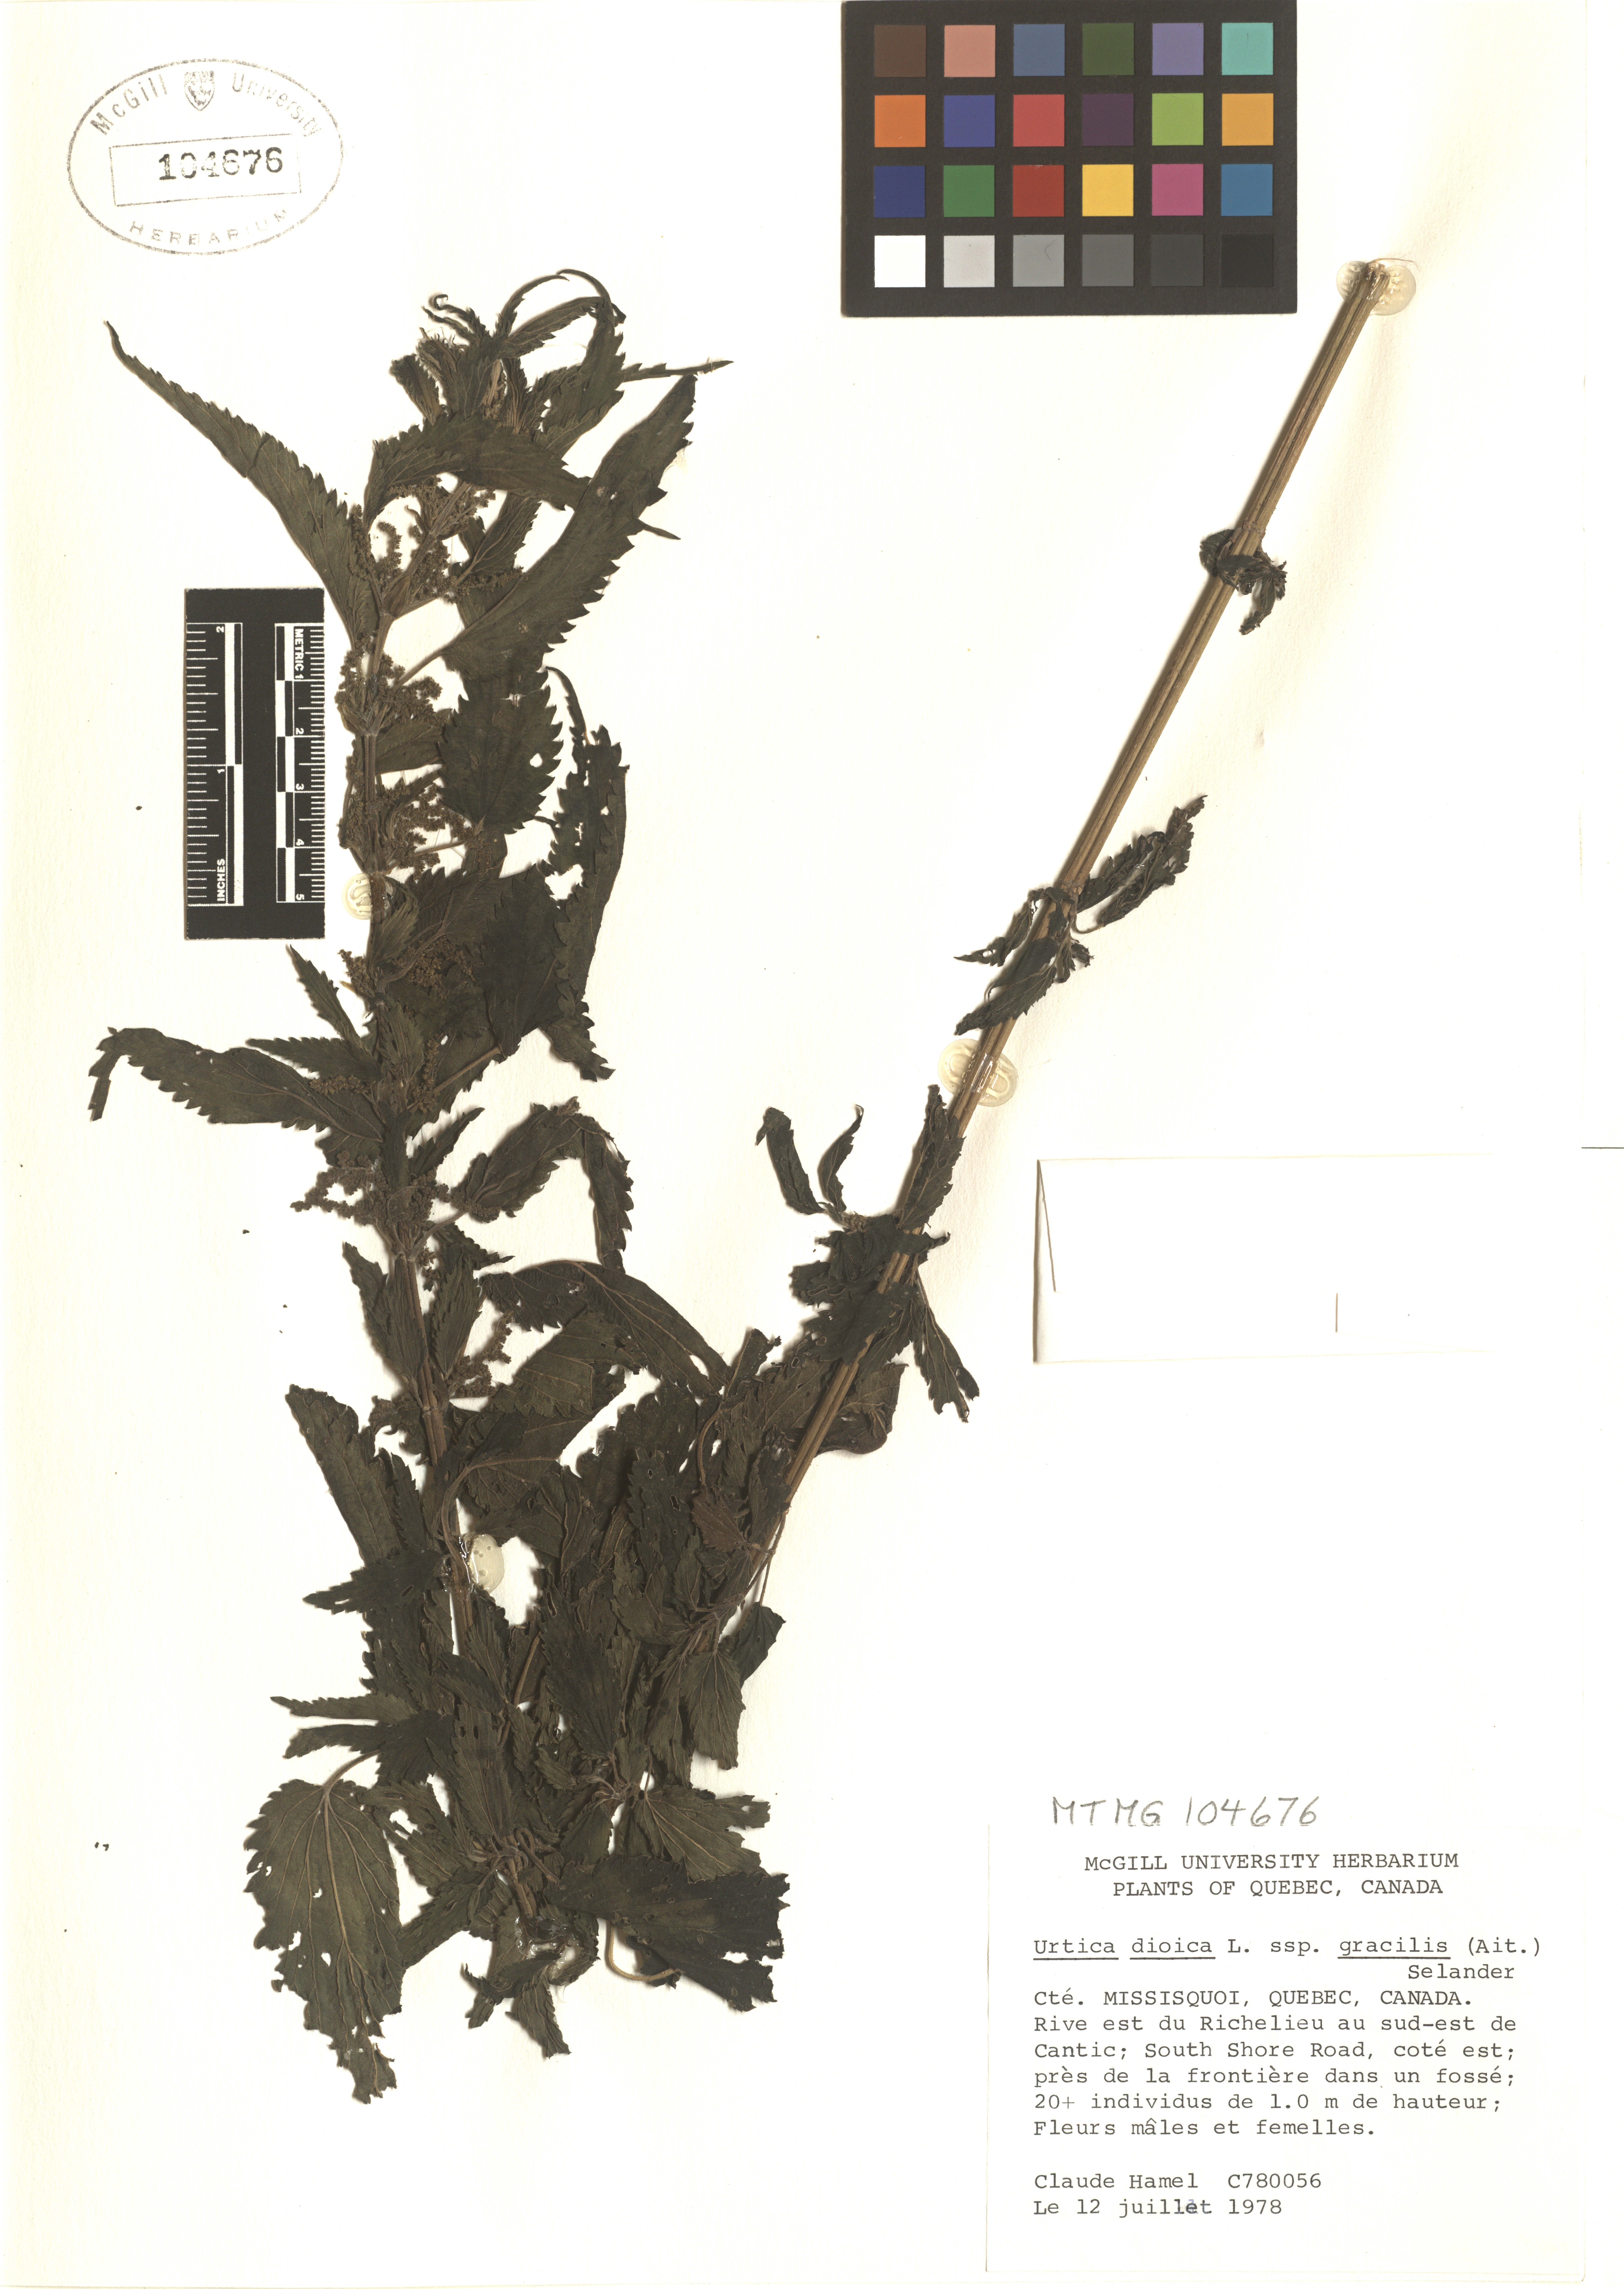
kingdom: Plantae
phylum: Tracheophyta
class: Magnoliopsida
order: Rosales
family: Urticaceae
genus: Urtica
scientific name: Urtica gracilis
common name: Slender stinging nettle
